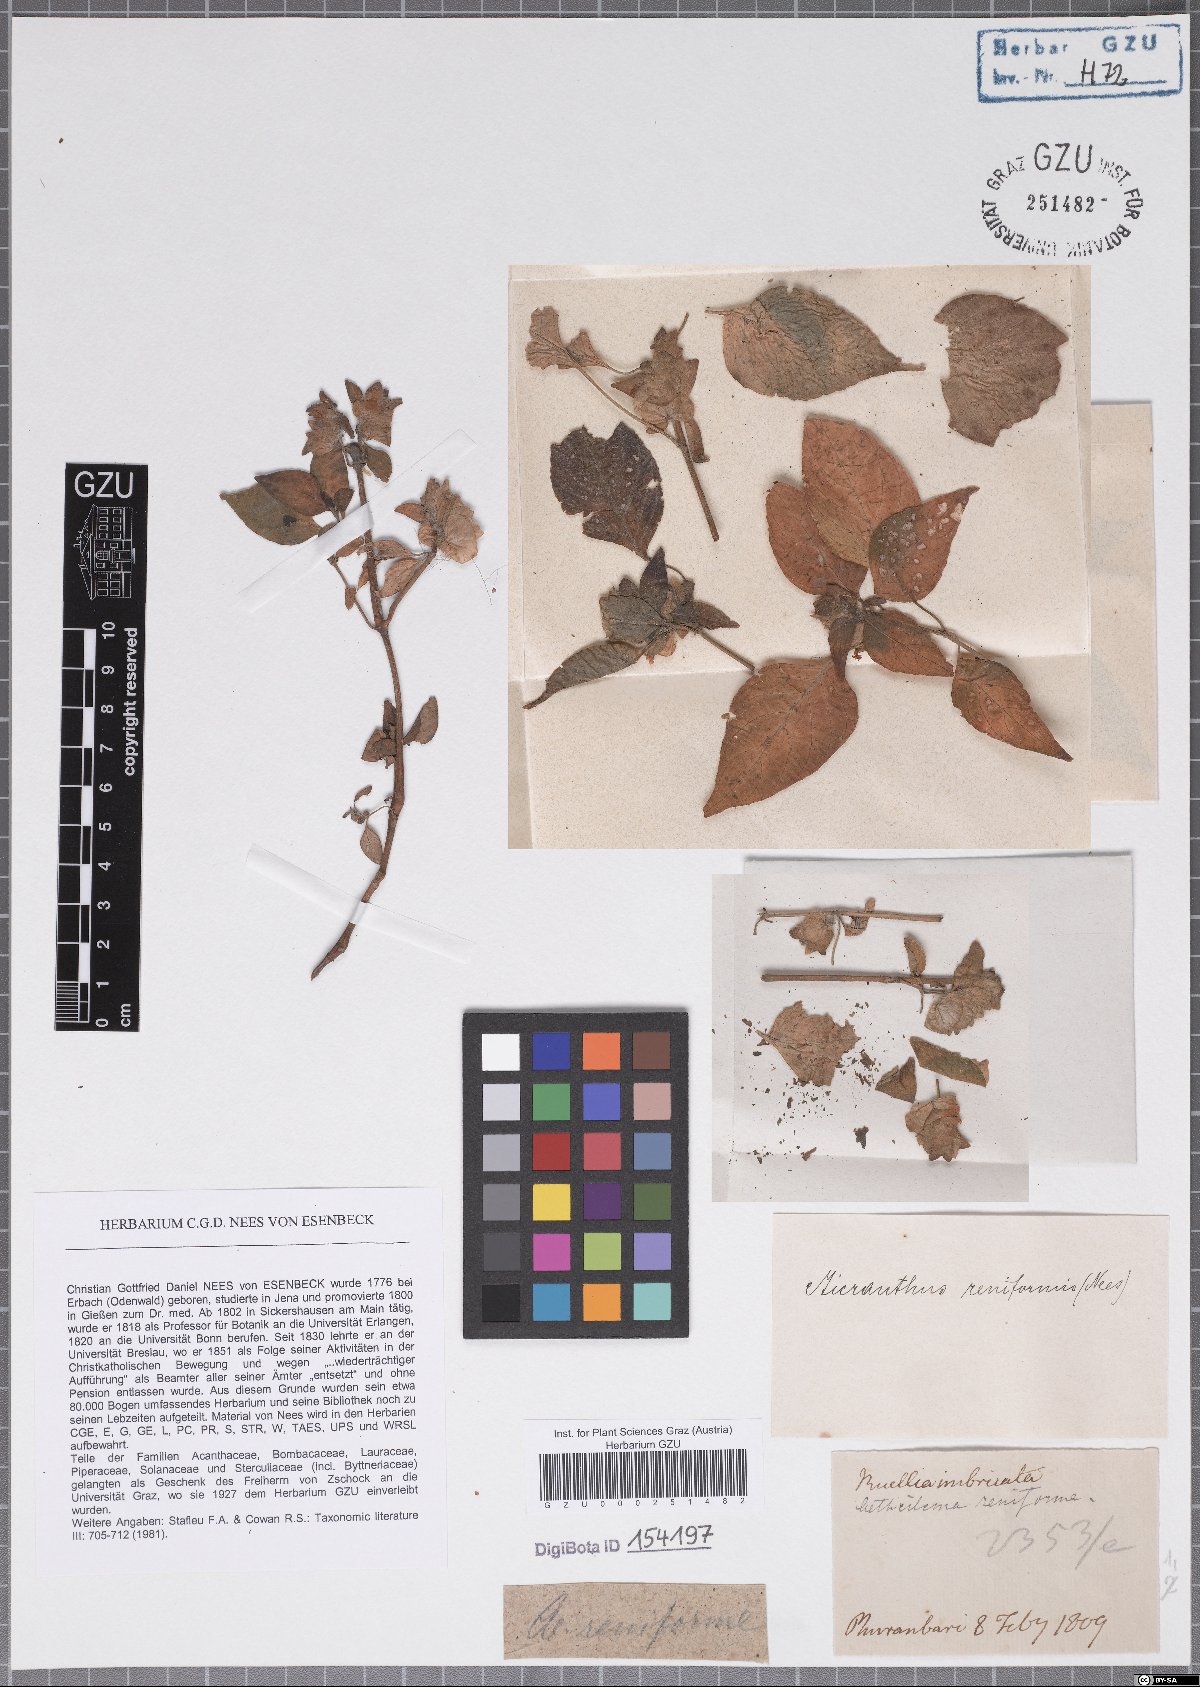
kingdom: Plantae
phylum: Tracheophyta
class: Magnoliopsida
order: Lamiales
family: Acanthaceae
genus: Phaulopsis
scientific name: Phaulopsis dorsiflora
